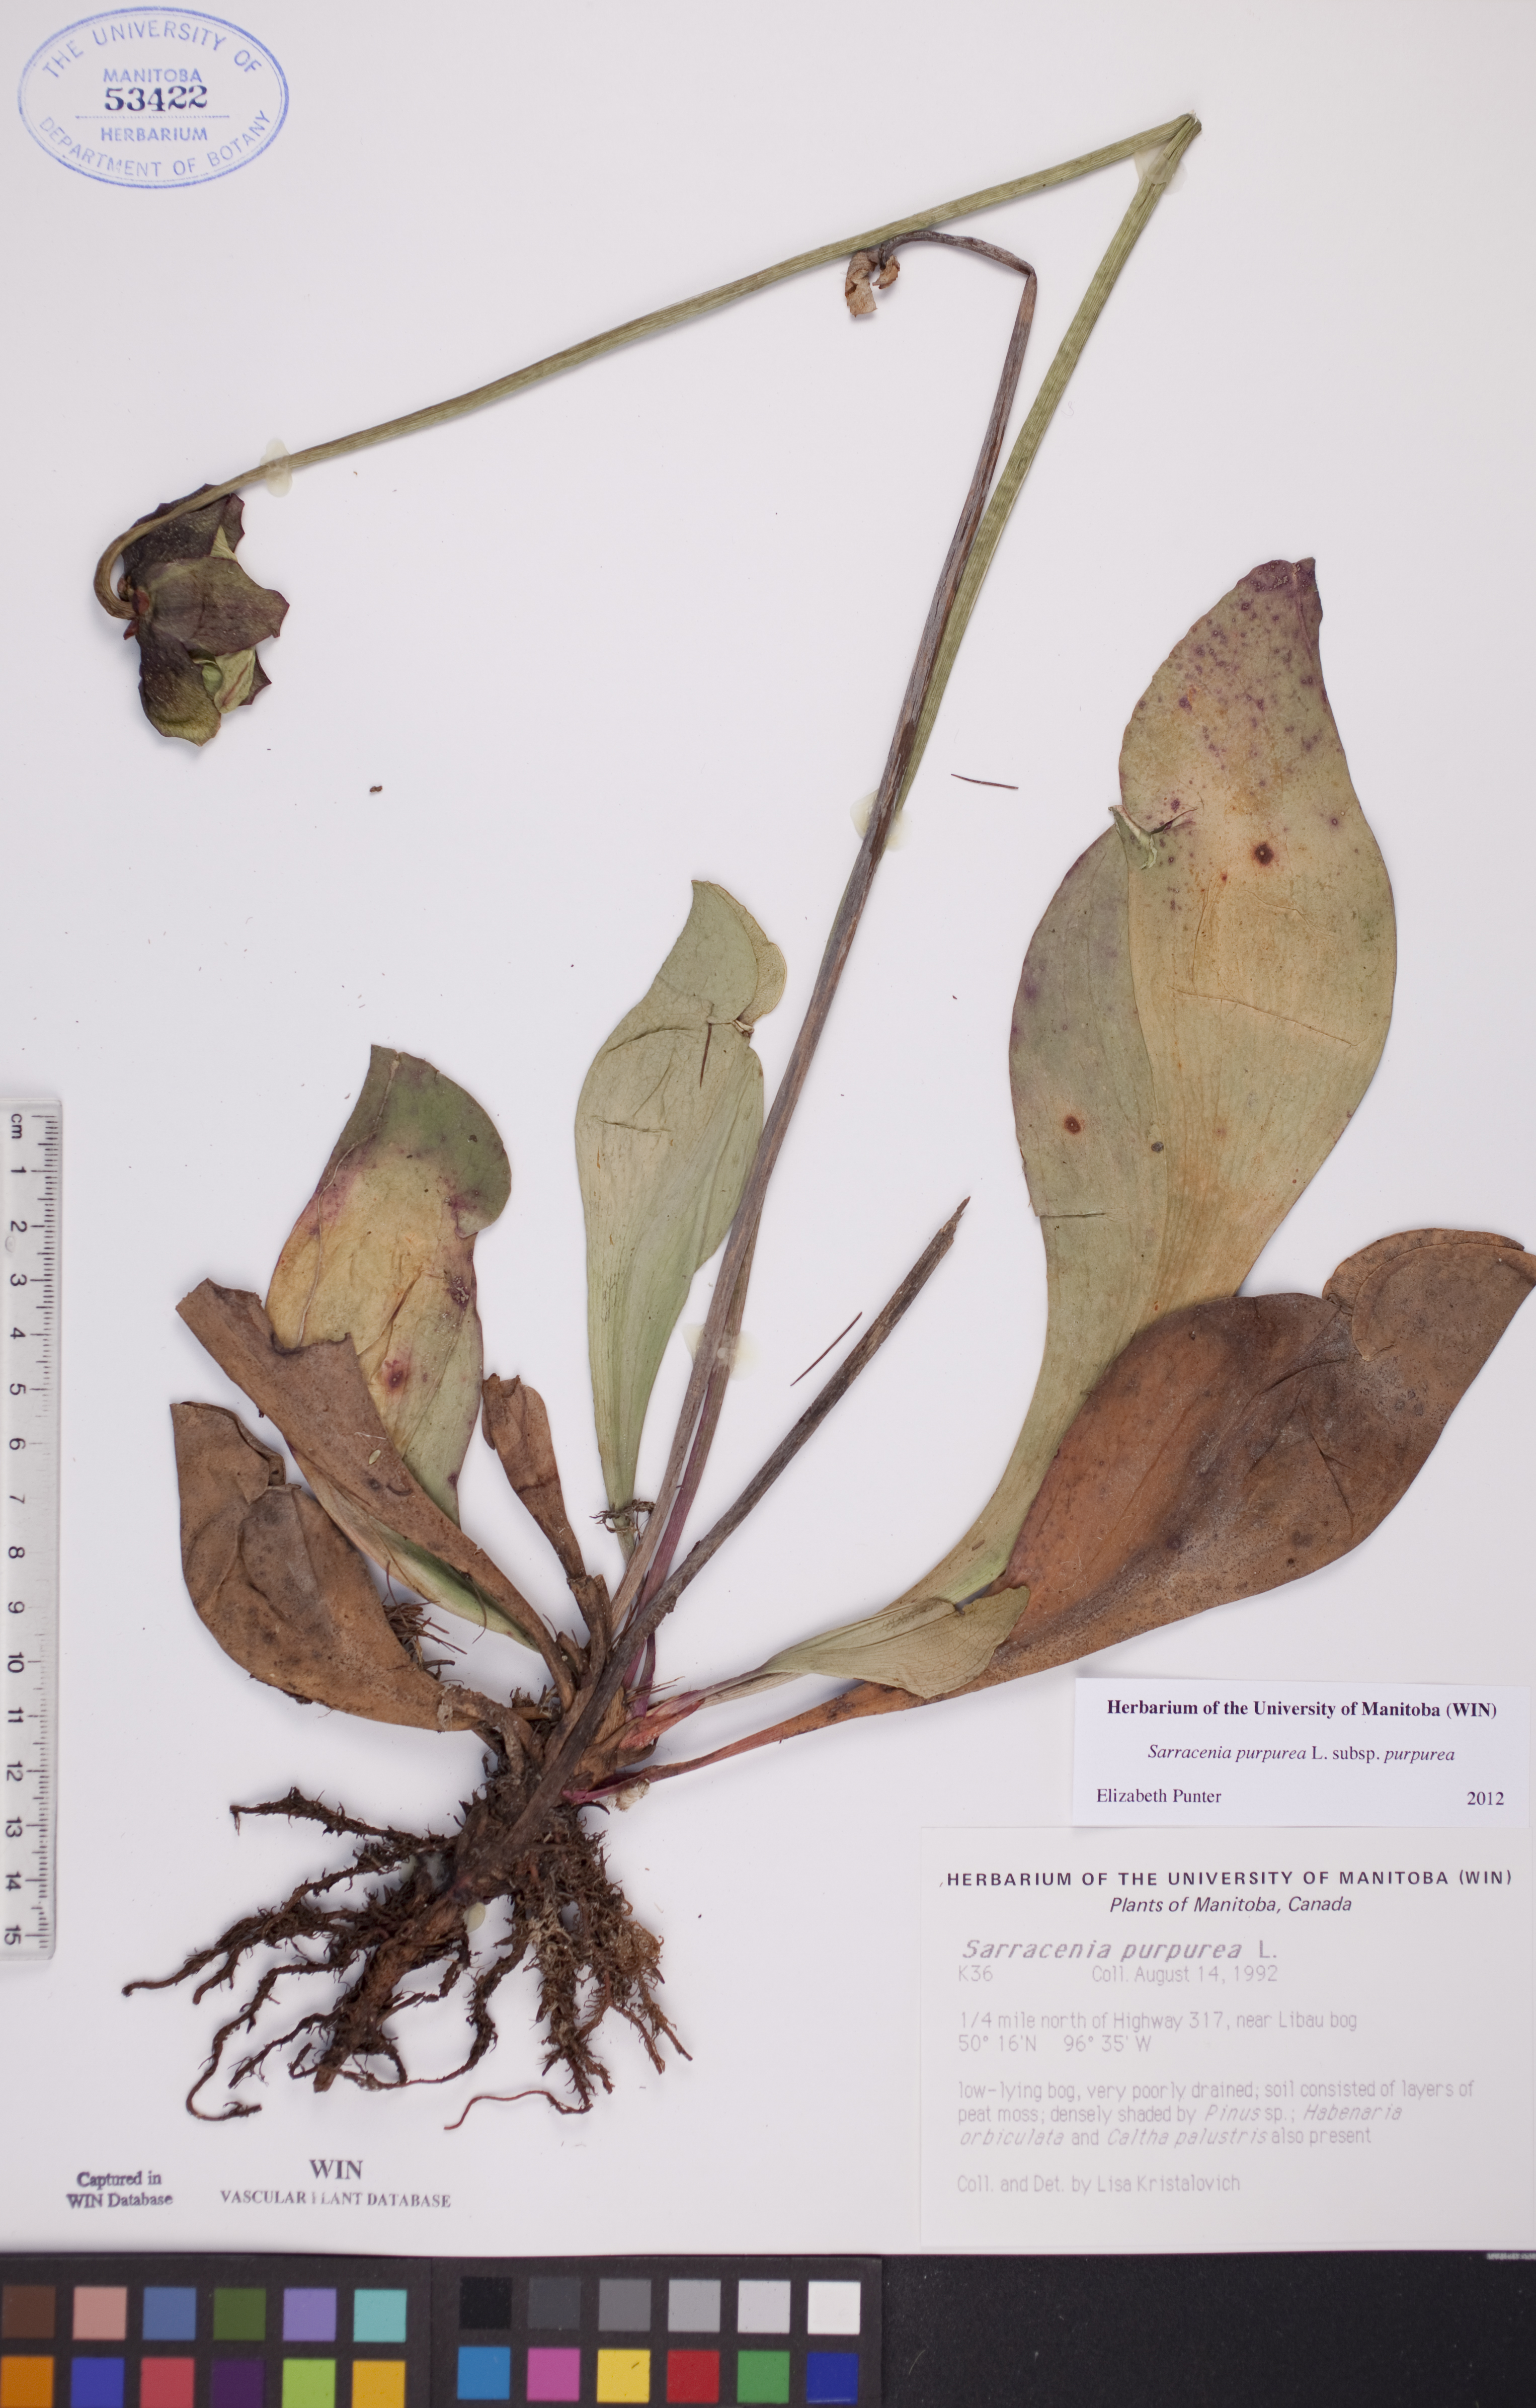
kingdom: Plantae
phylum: Tracheophyta
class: Magnoliopsida
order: Ericales
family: Sarraceniaceae
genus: Sarracenia
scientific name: Sarracenia purpurea
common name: Pitcherplant
